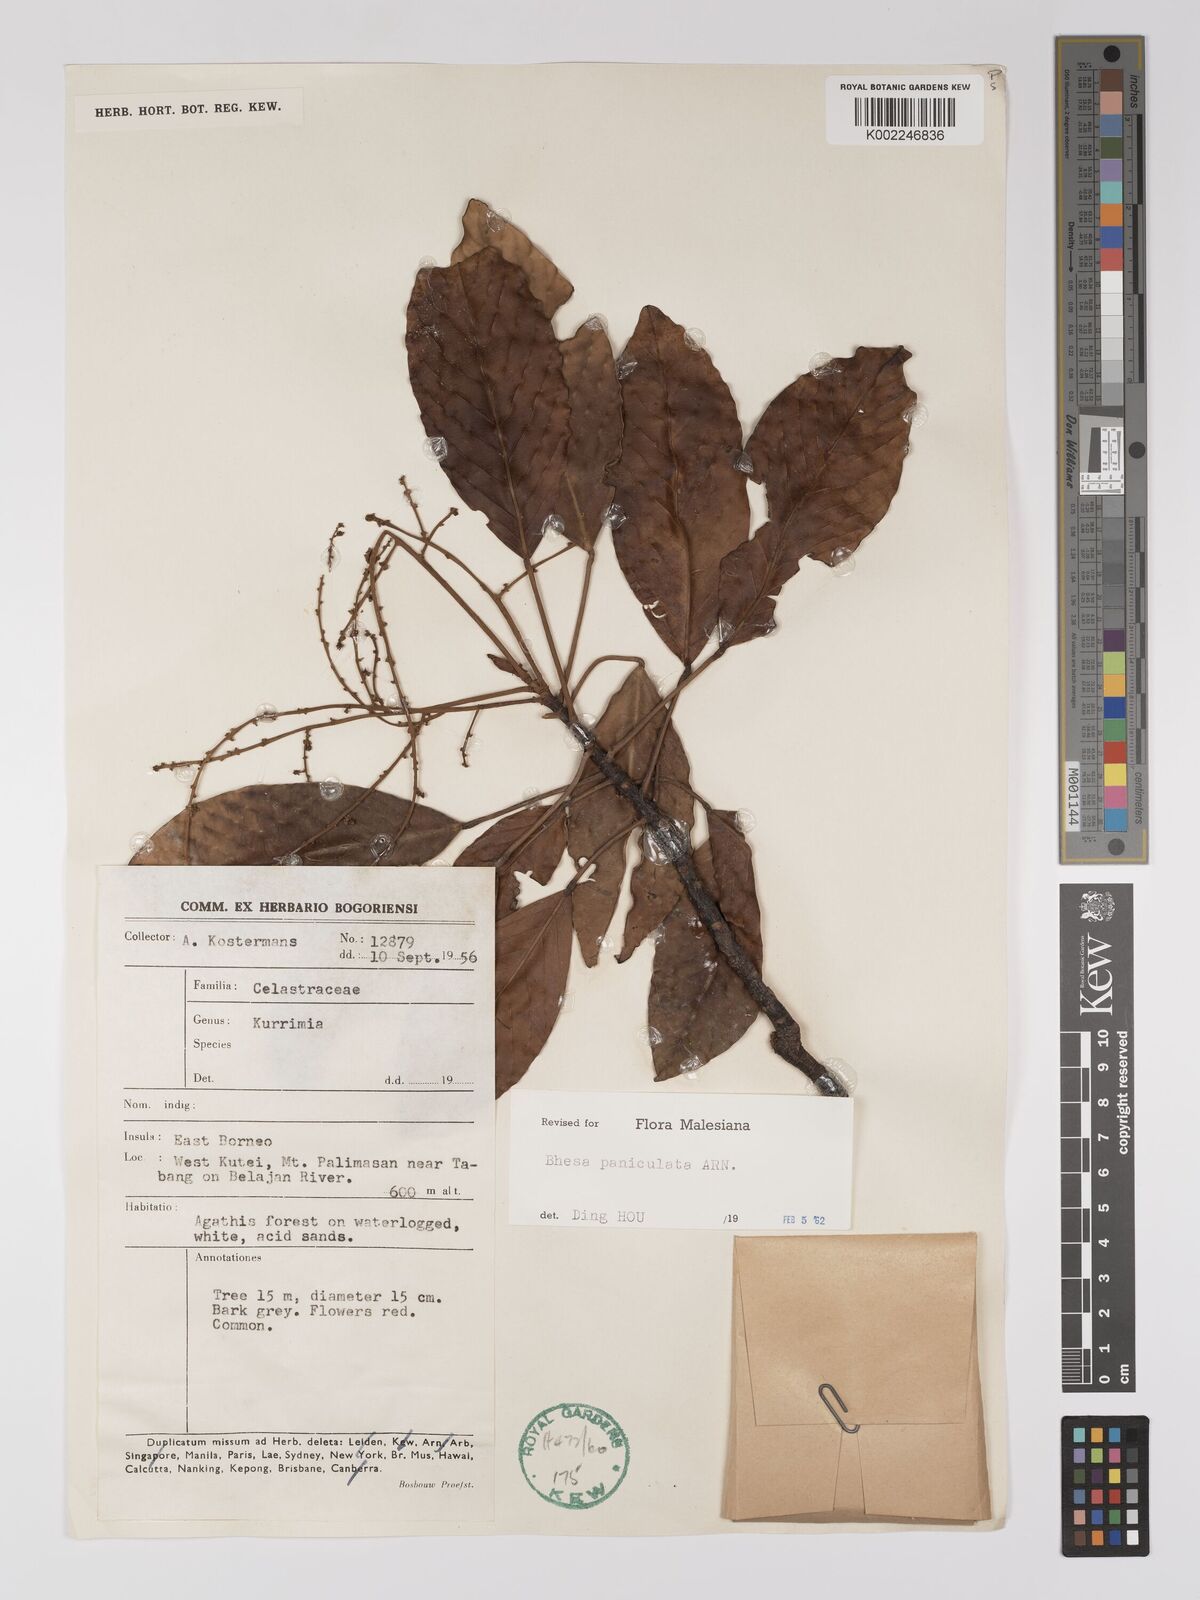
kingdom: Plantae
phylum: Tracheophyta
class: Magnoliopsida
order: Malpighiales
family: Centroplacaceae
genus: Bhesa
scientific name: Bhesa paniculata
